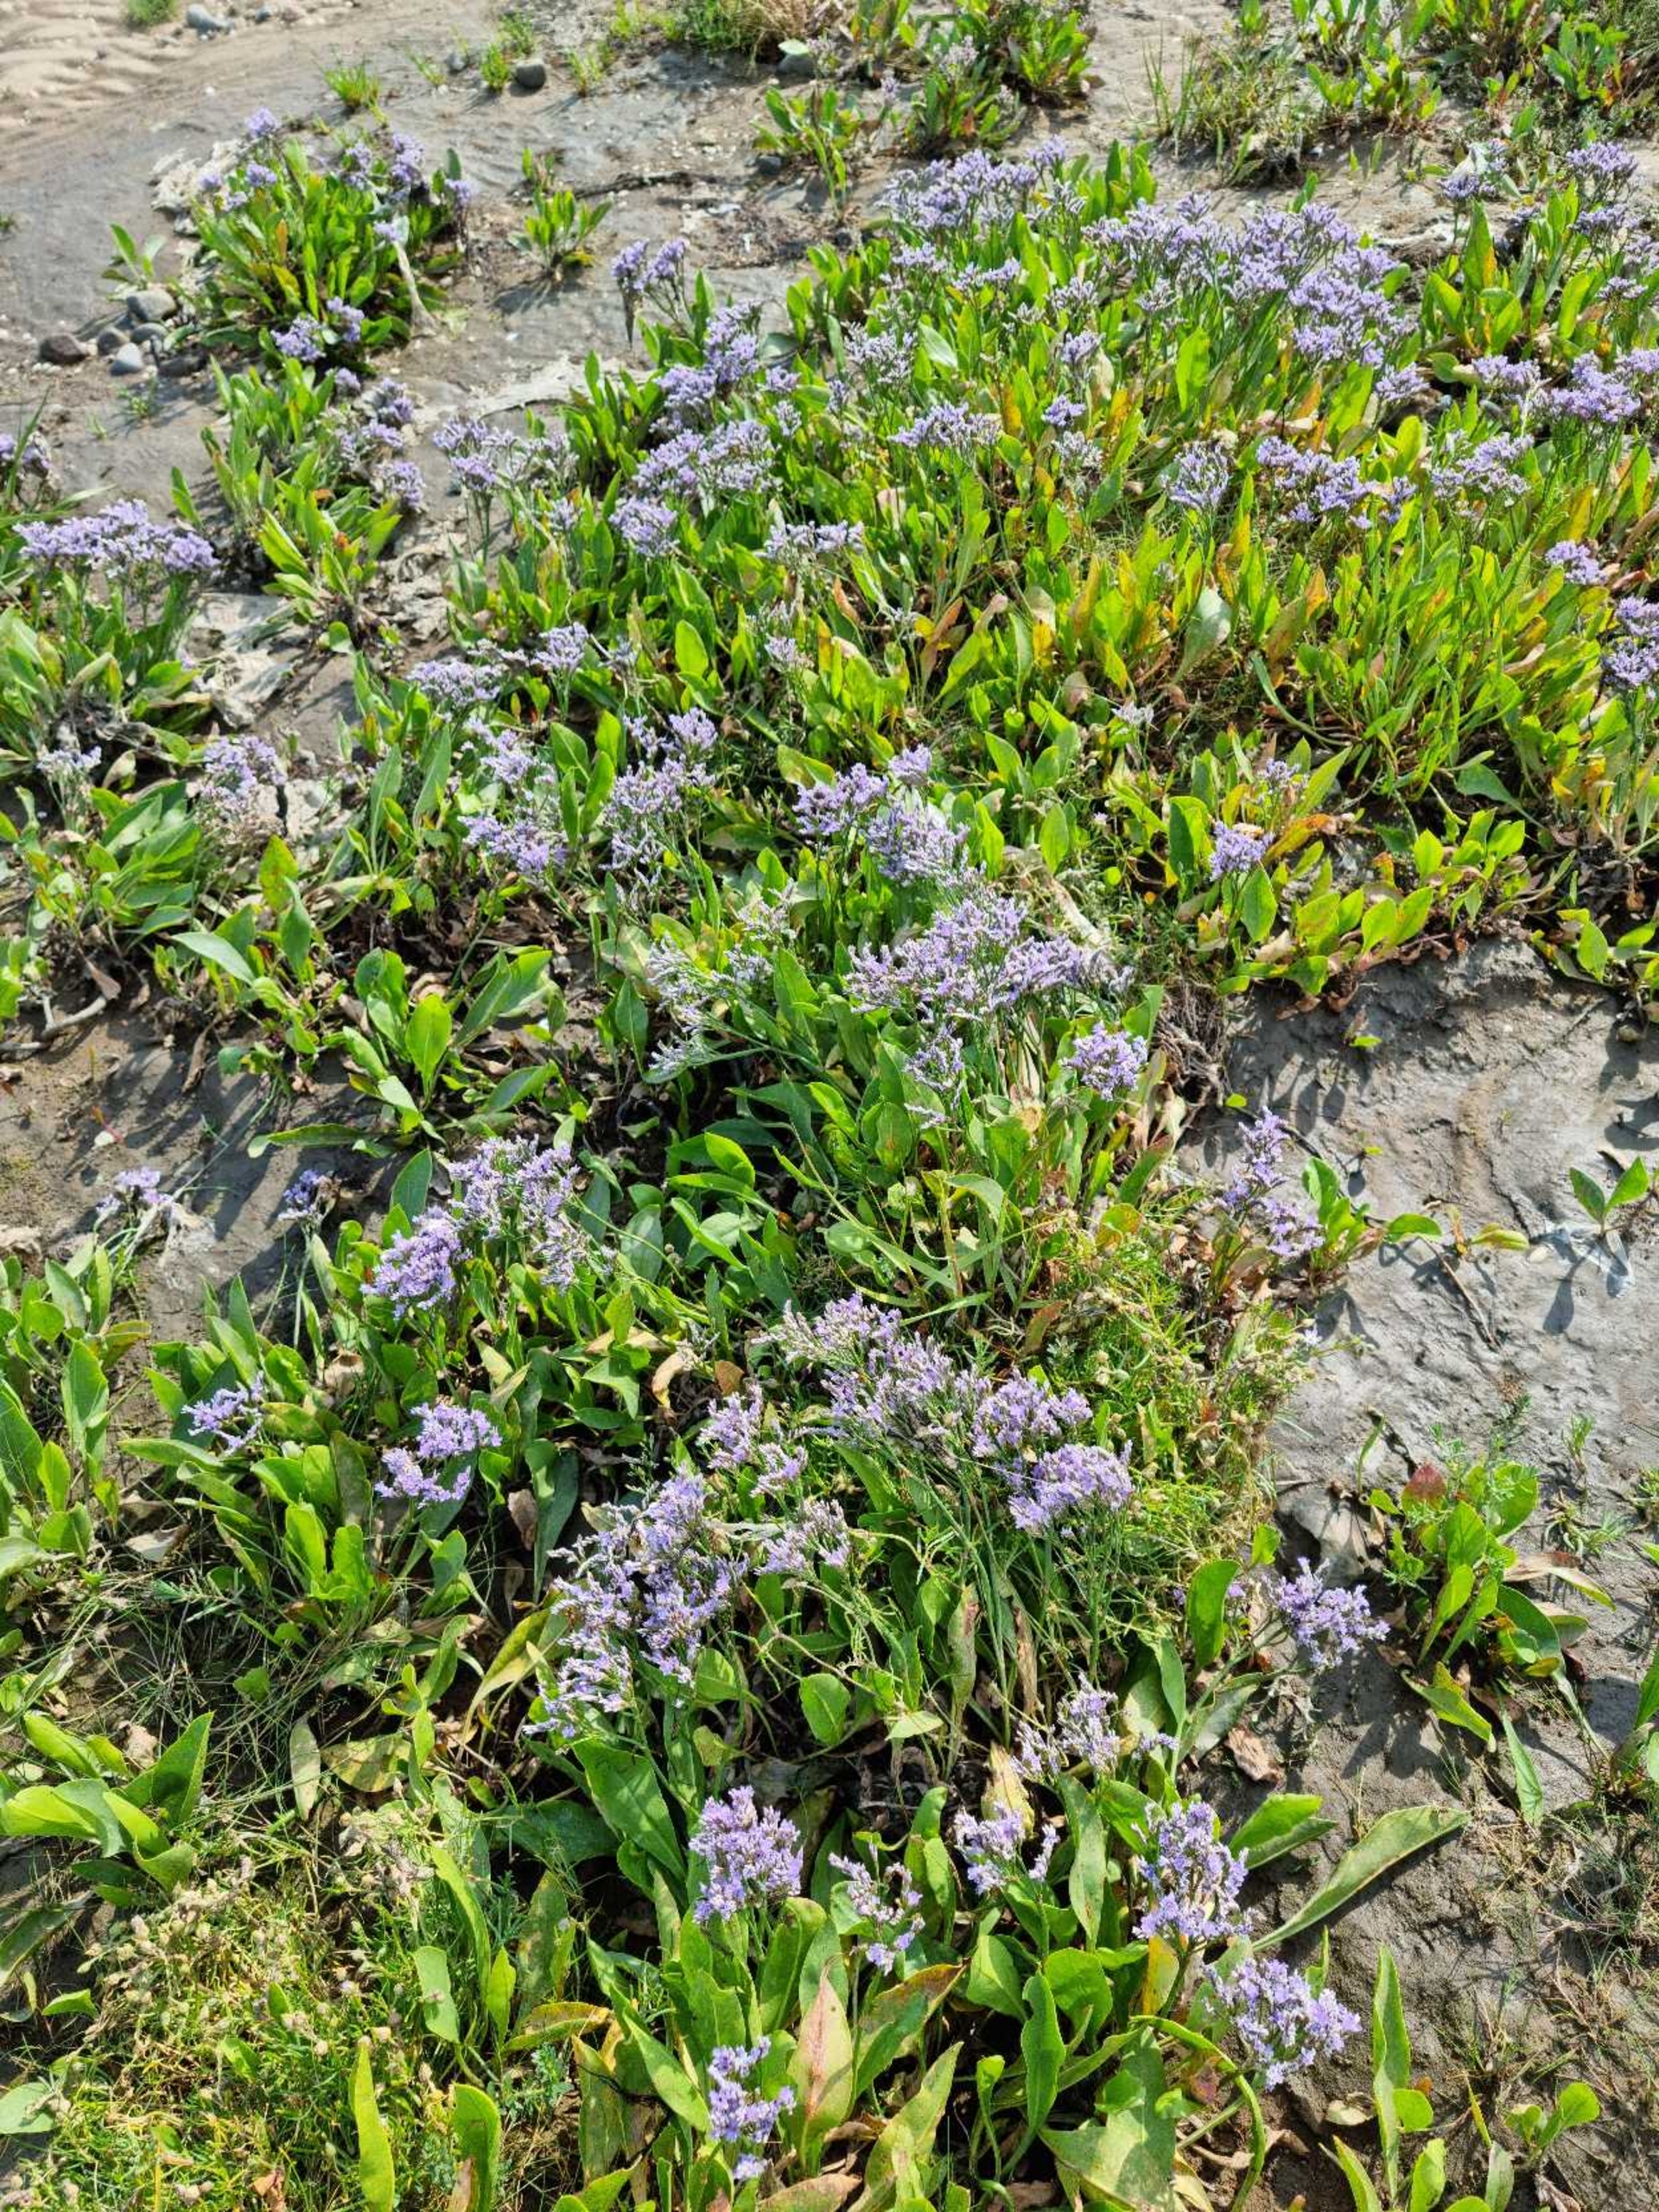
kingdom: Plantae
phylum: Tracheophyta
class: Magnoliopsida
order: Caryophyllales
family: Plumbaginaceae
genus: Limonium
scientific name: Limonium vulgare
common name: Tætblomstret hindebæger
